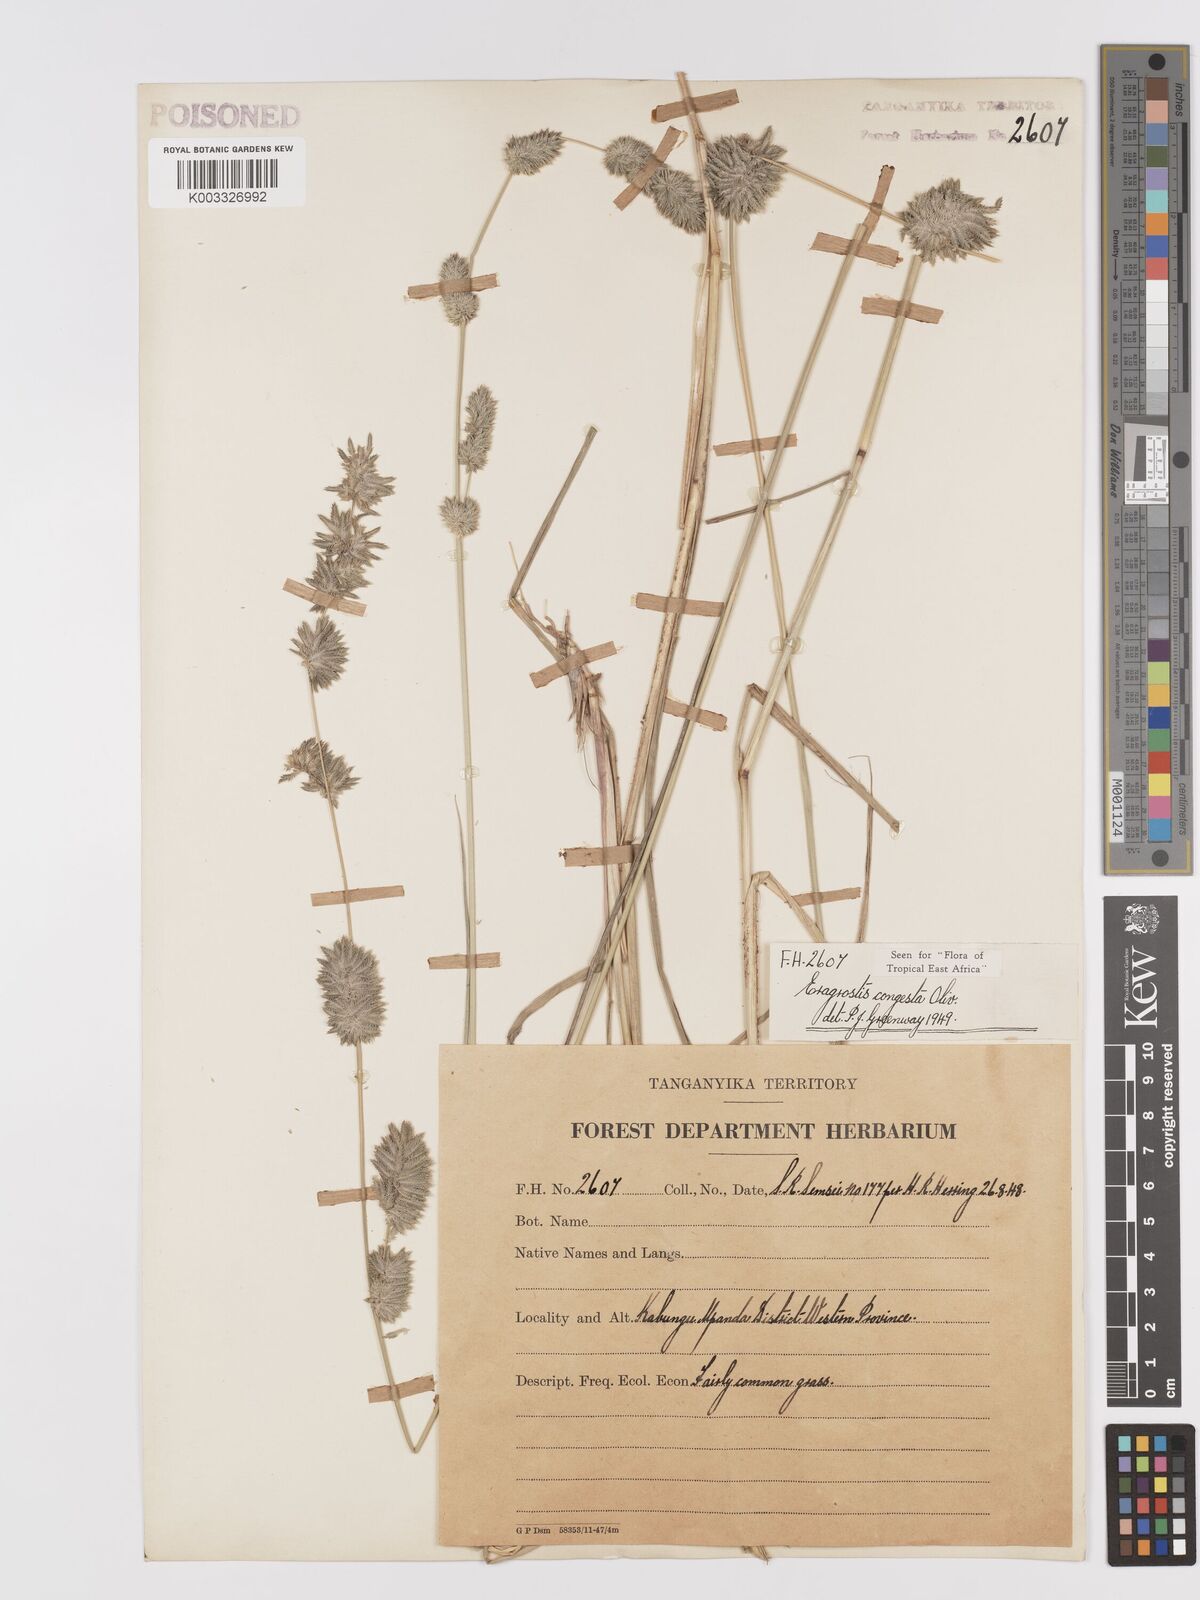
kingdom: Plantae
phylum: Tracheophyta
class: Liliopsida
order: Poales
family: Poaceae
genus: Eragrostis
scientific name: Eragrostis congesta
